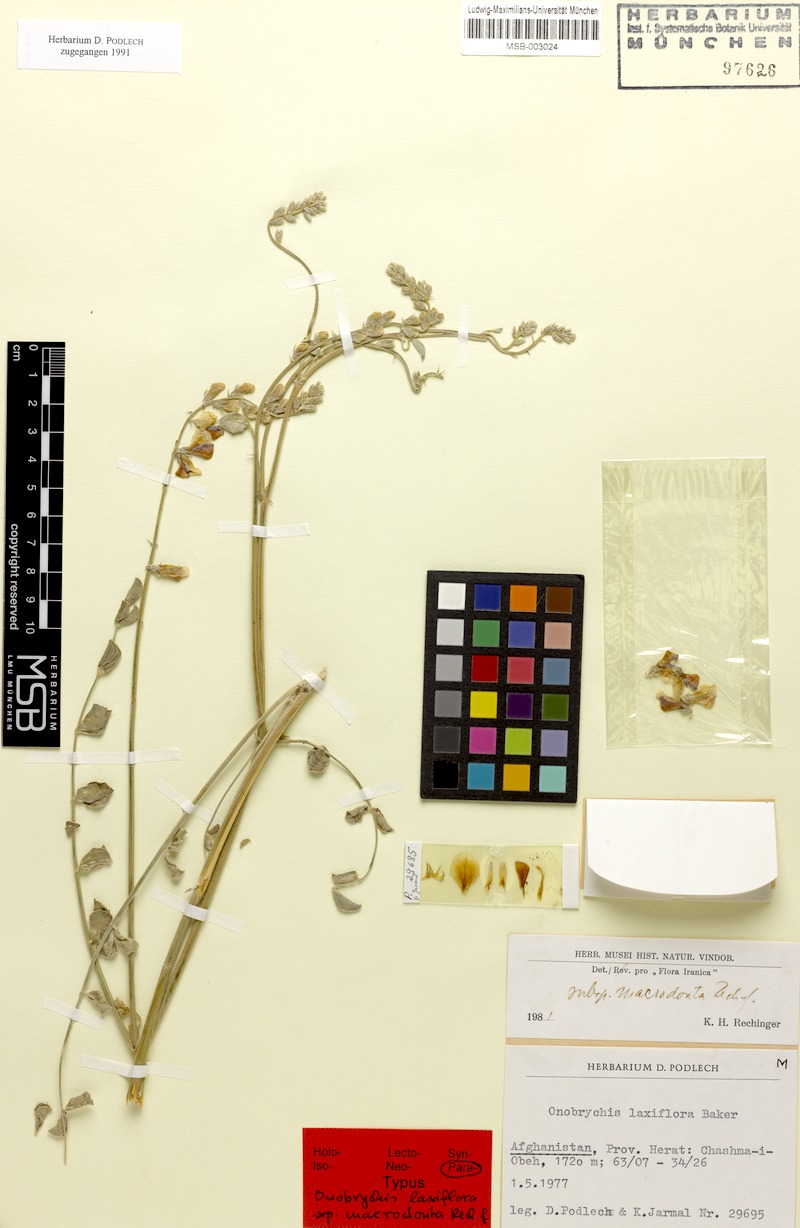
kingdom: Plantae
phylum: Tracheophyta
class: Magnoliopsida
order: Fabales
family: Fabaceae
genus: Onobrychis
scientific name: Onobrychis laxiflora
